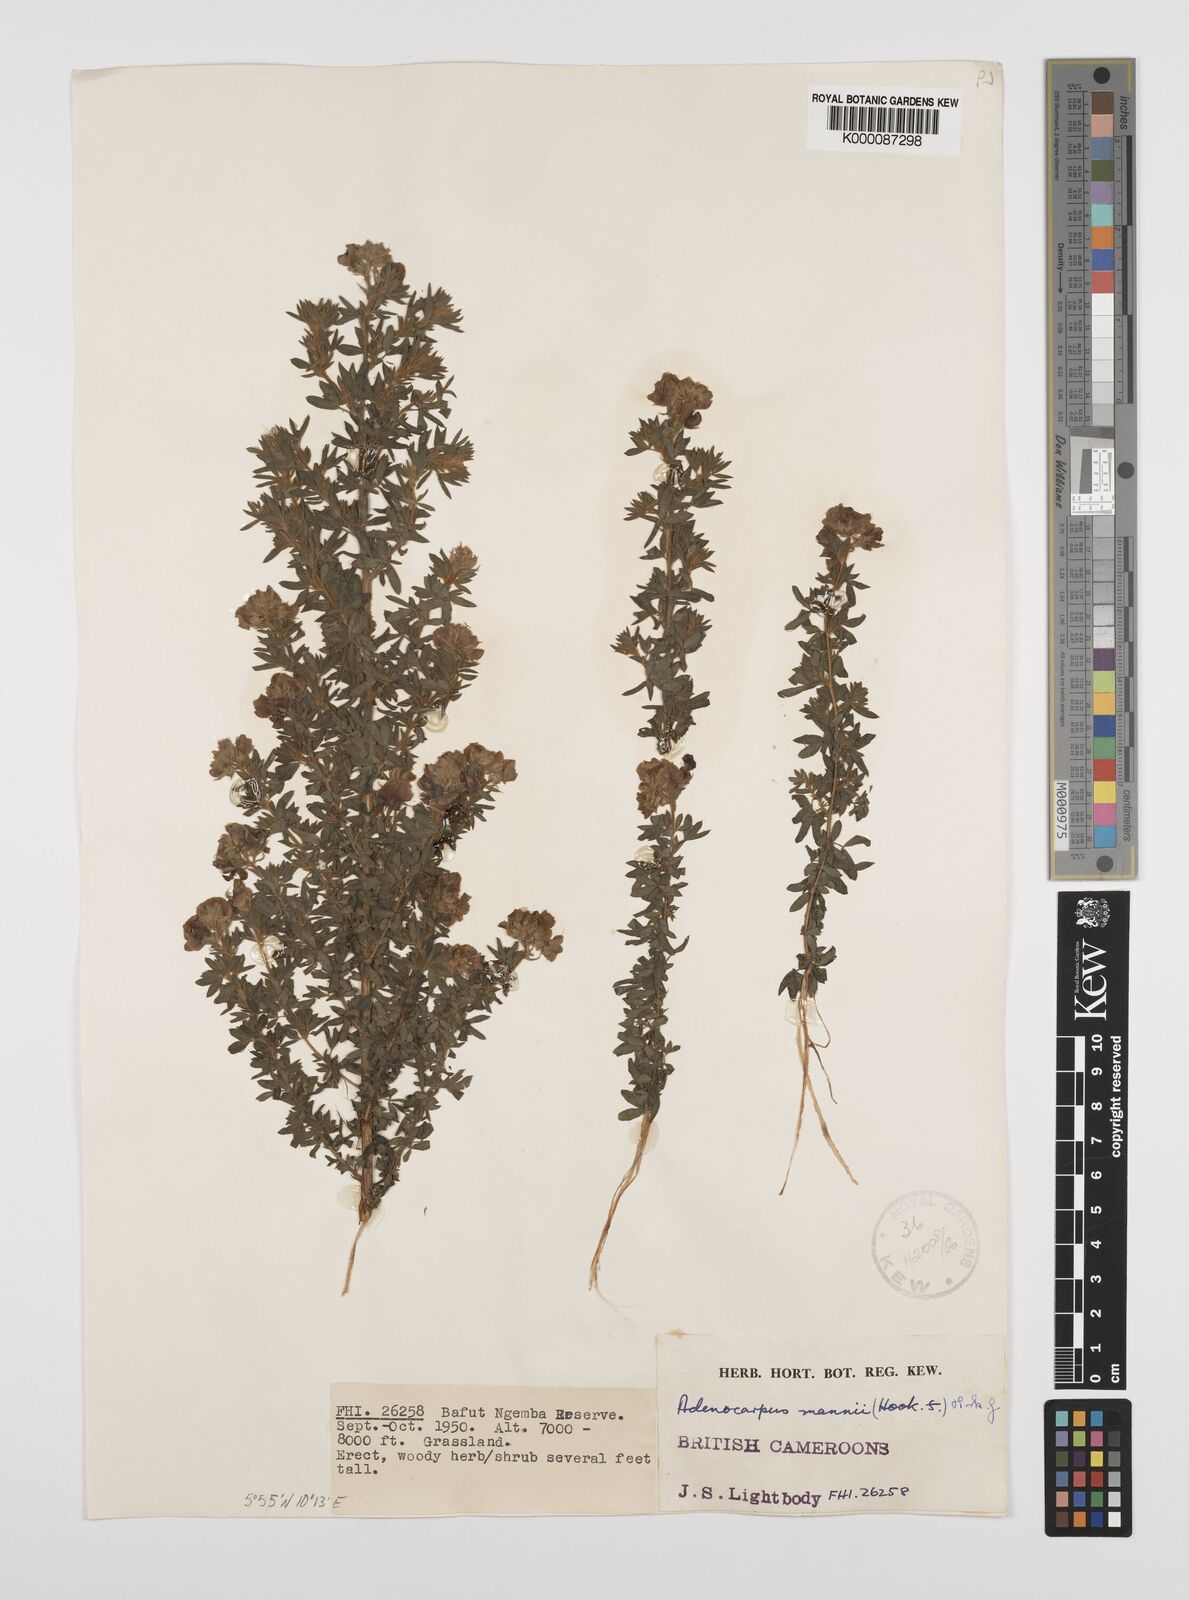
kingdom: Plantae
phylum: Tracheophyta
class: Magnoliopsida
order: Fabales
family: Fabaceae
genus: Adenocarpus
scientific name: Adenocarpus mannii
